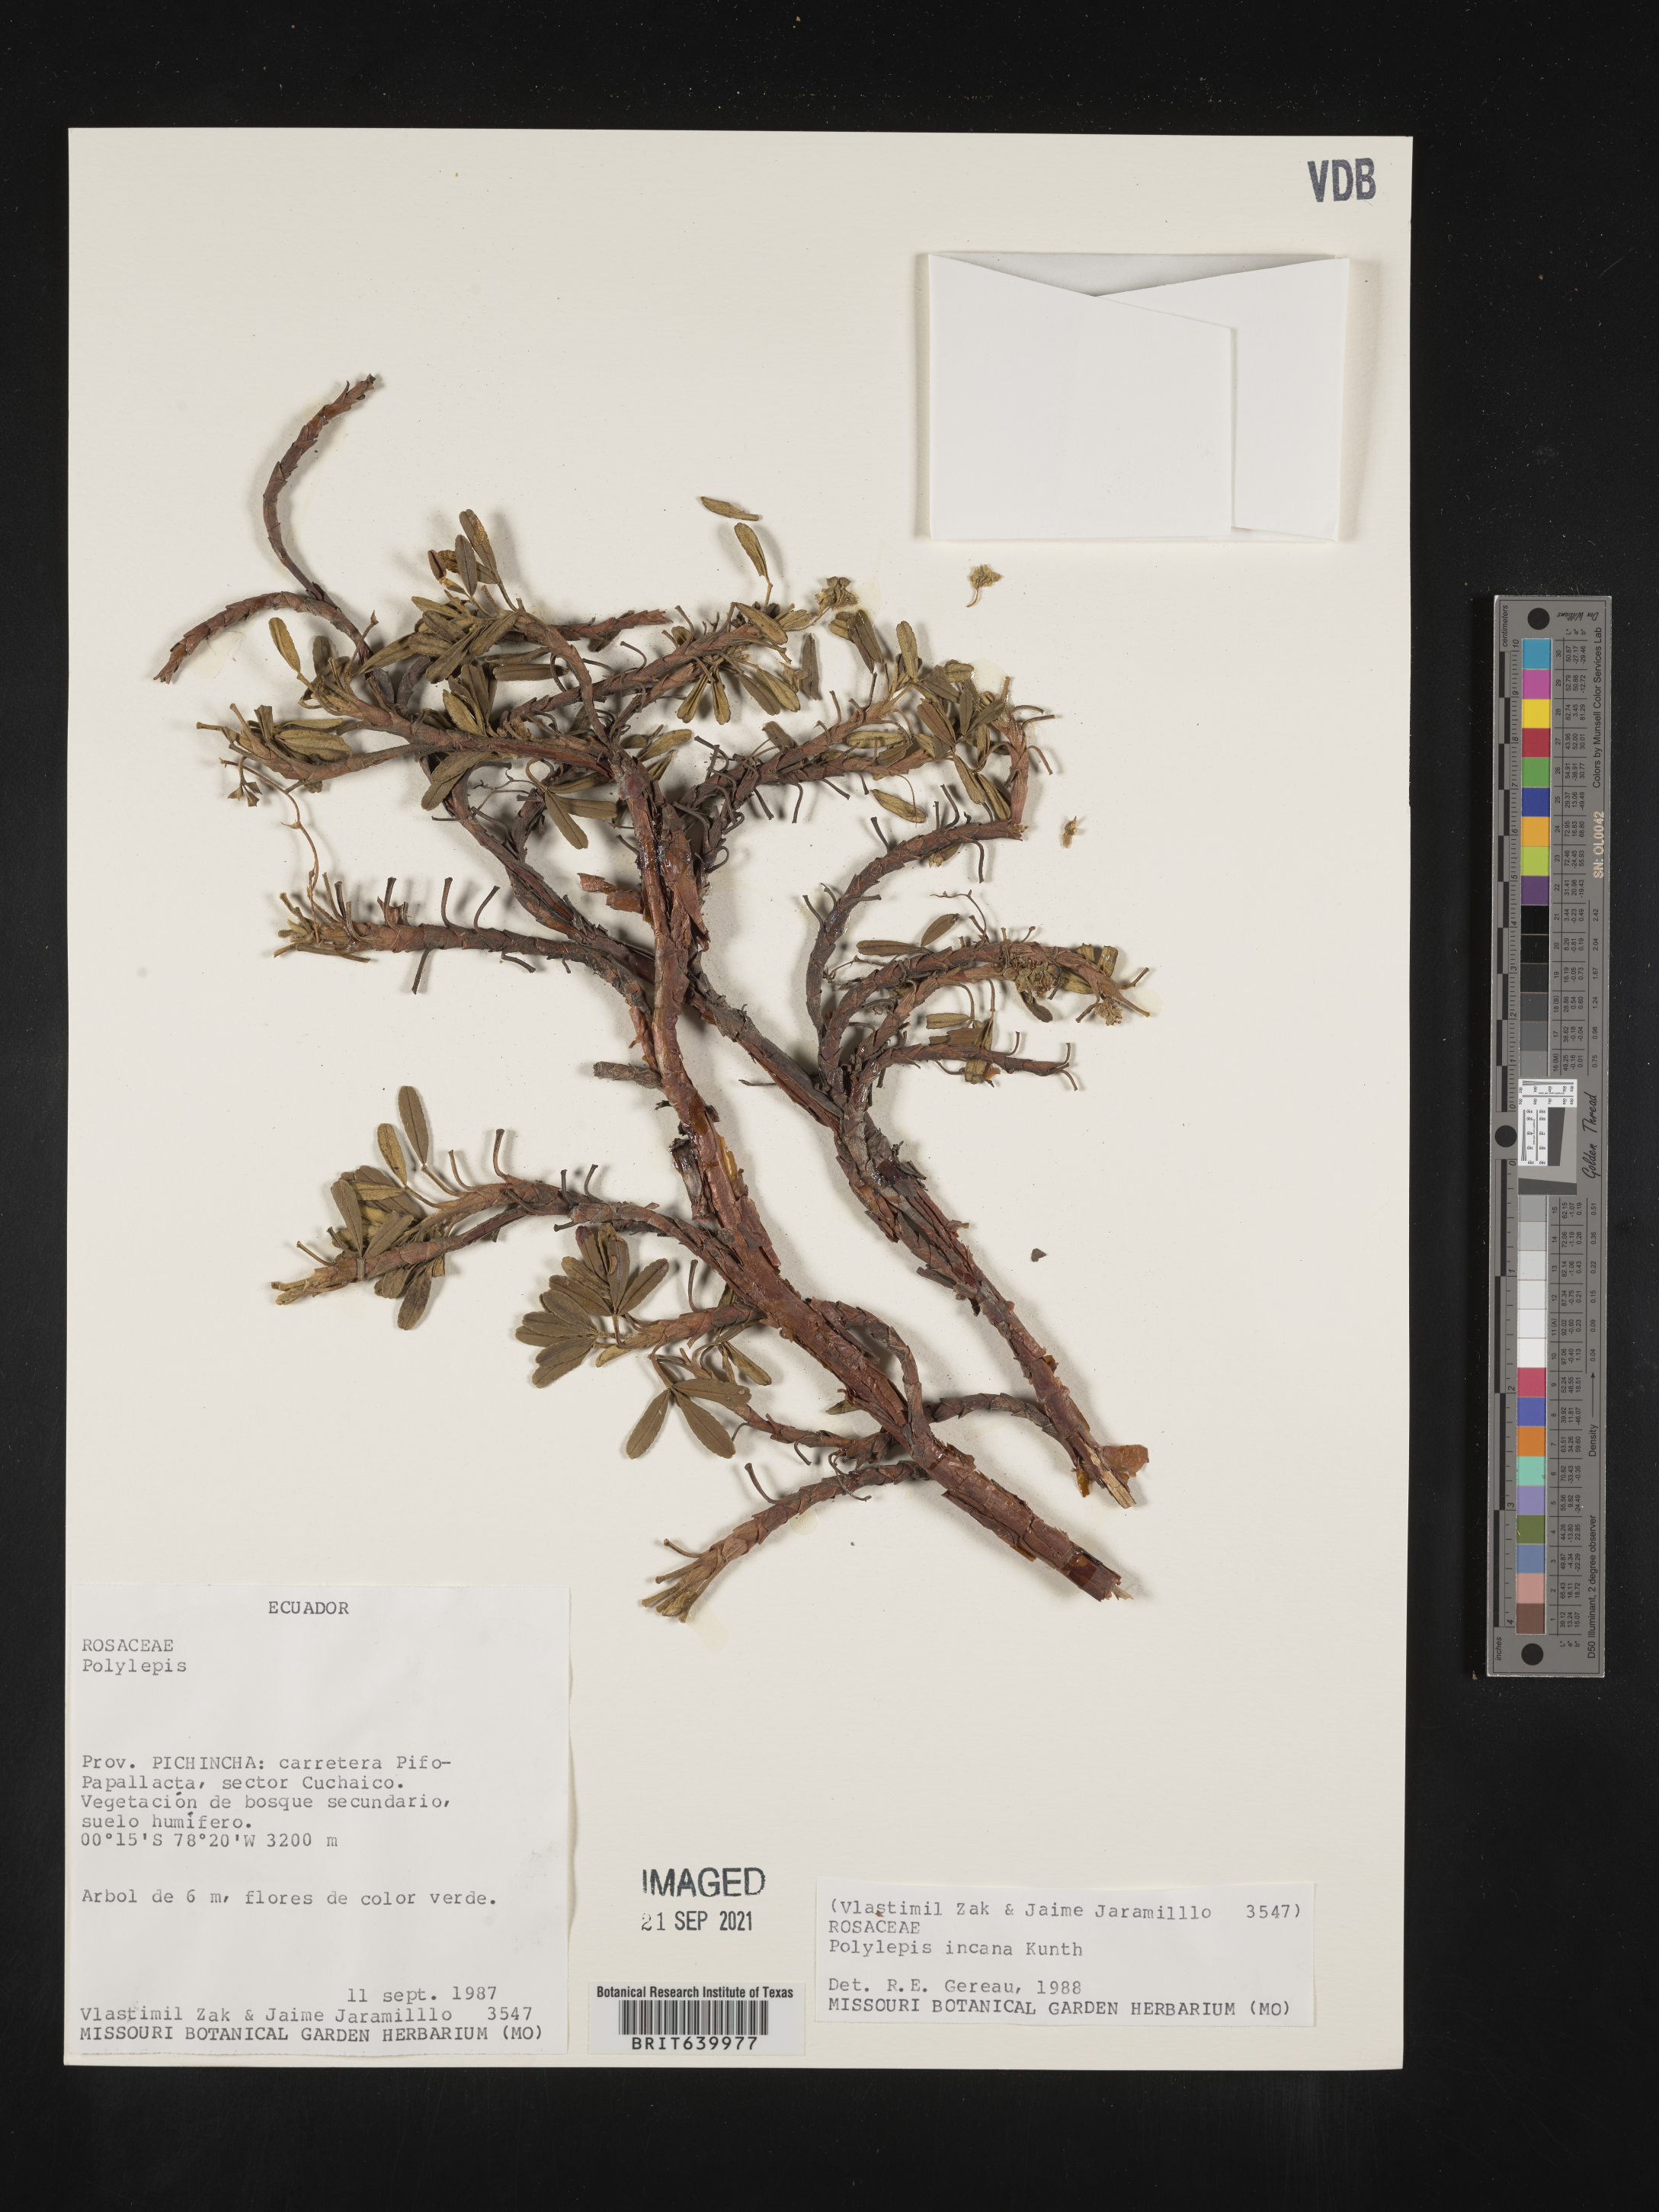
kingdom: Plantae
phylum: Tracheophyta
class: Magnoliopsida
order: Rosales
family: Rosaceae
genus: Polylepis
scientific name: Polylepis
